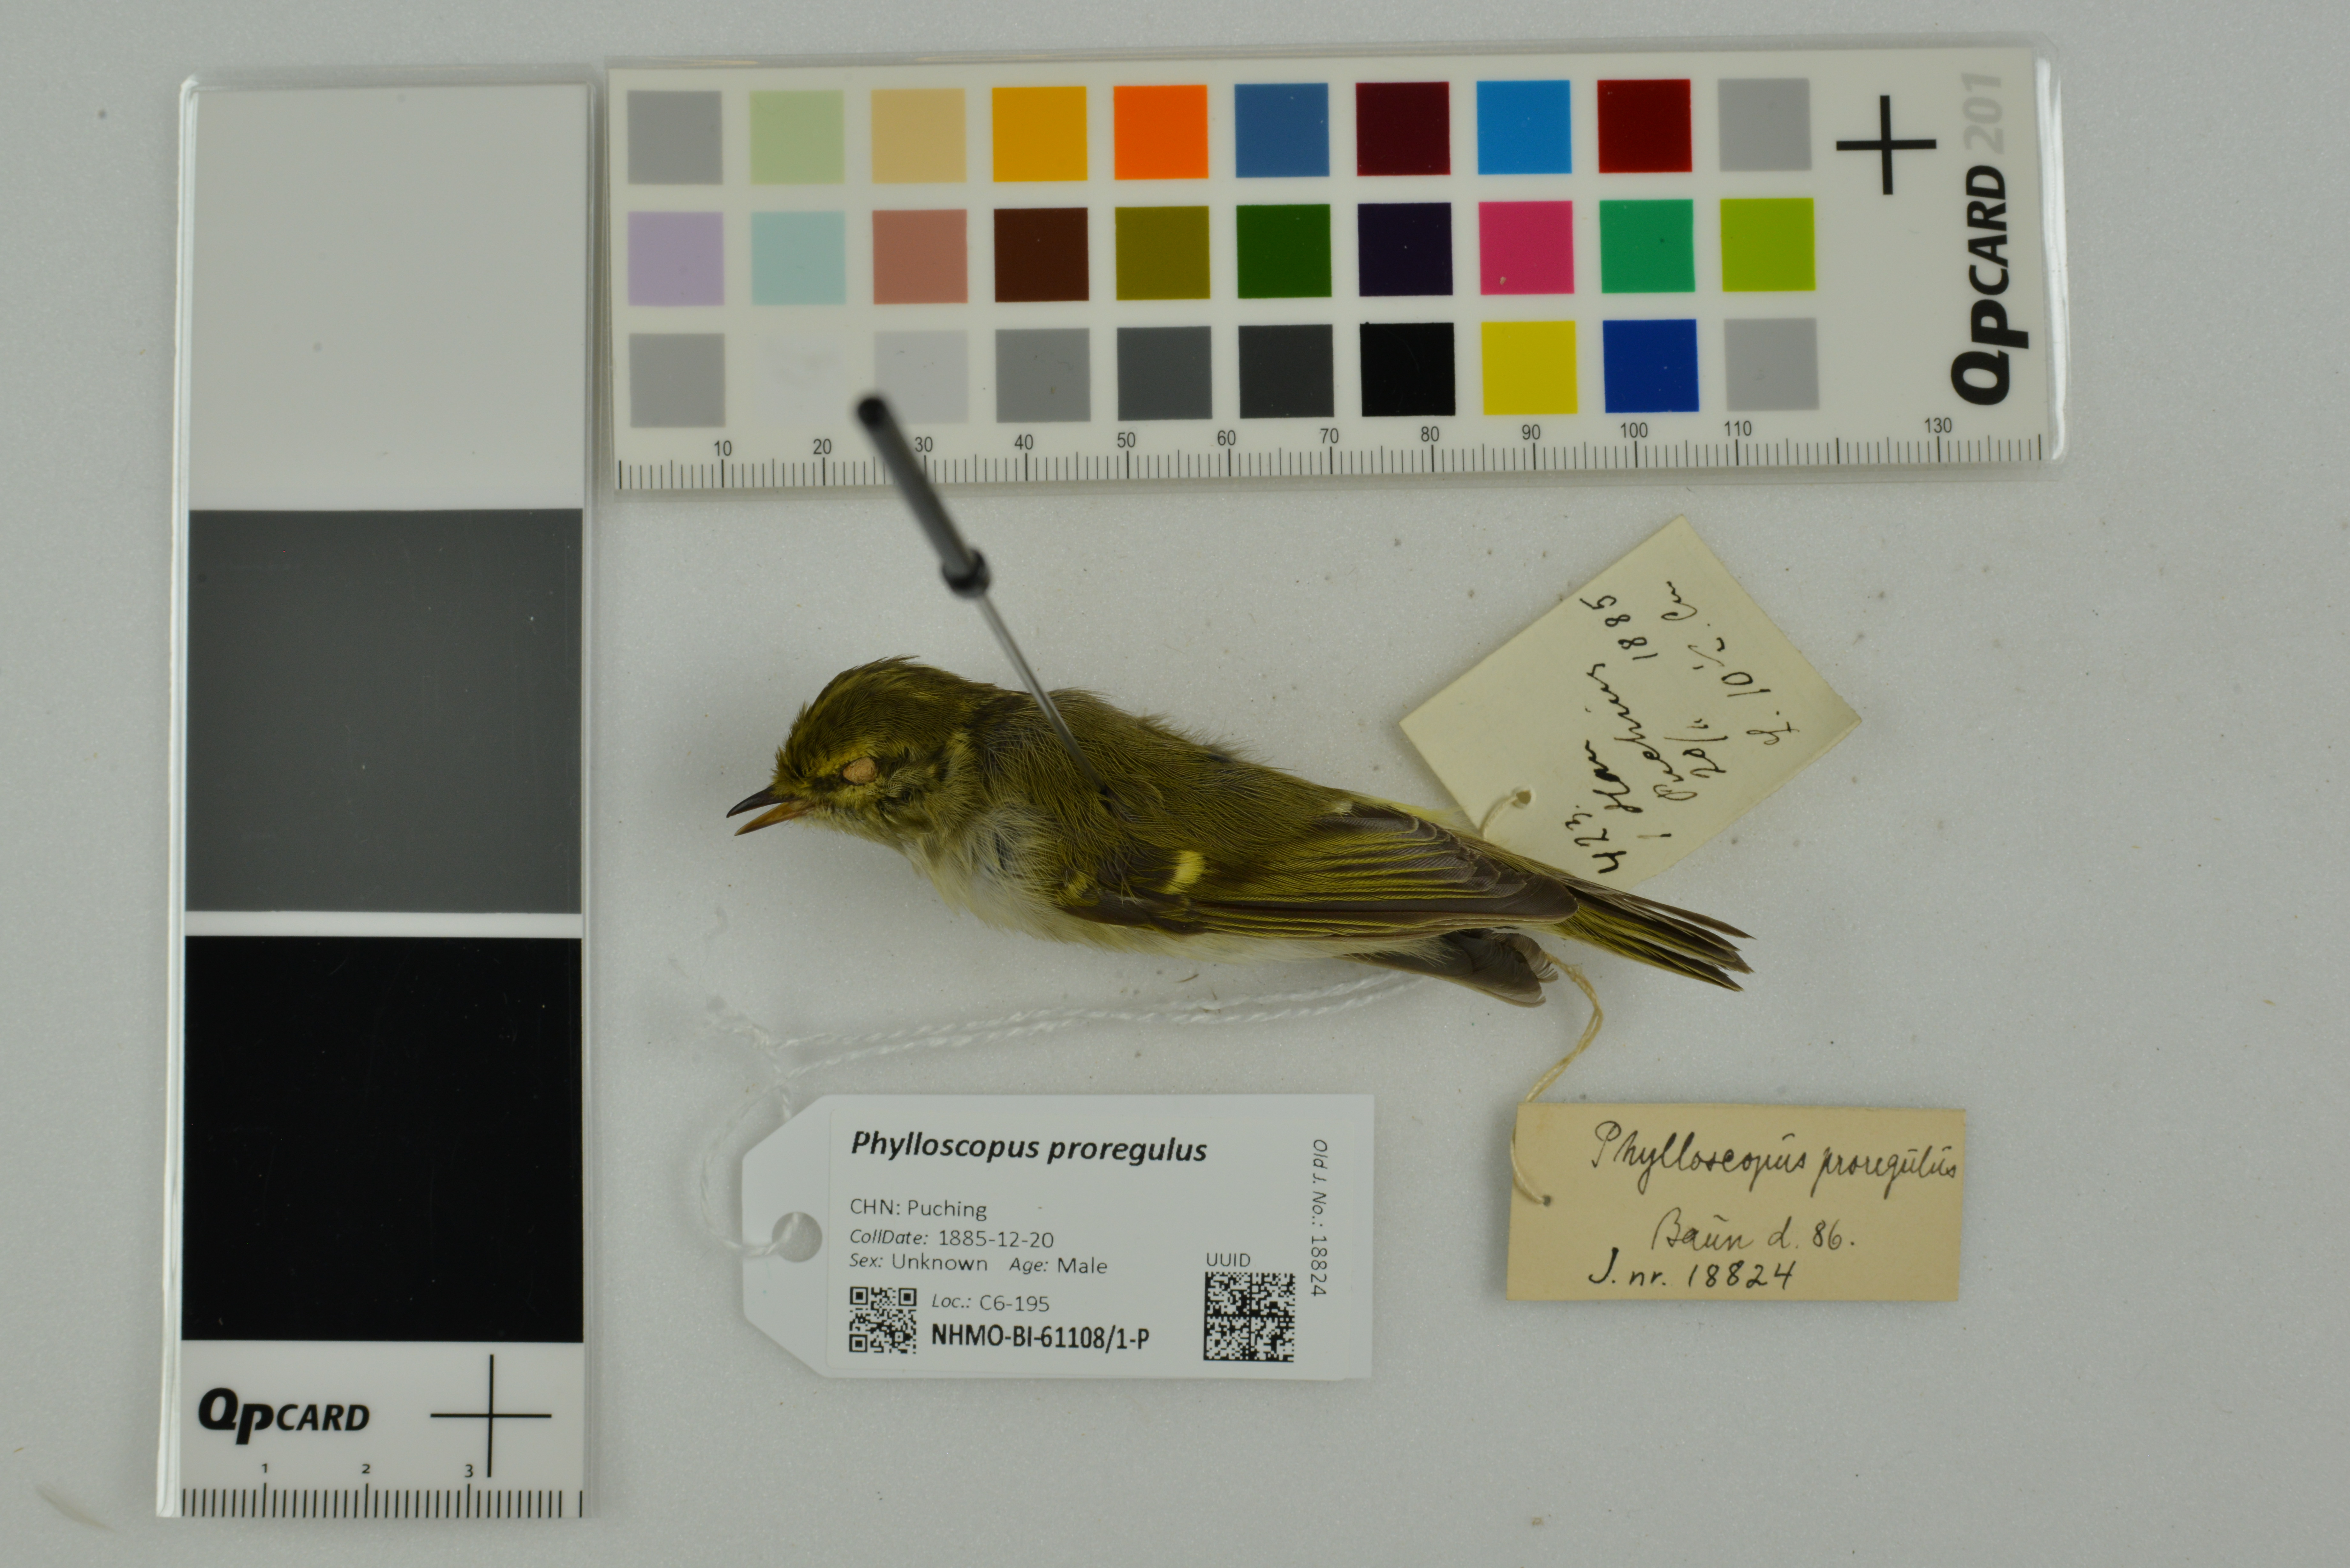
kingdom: Animalia
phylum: Chordata
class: Aves
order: Passeriformes
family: Phylloscopidae
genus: Phylloscopus
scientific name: Phylloscopus proregulus
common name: Pallas's leaf warbler
